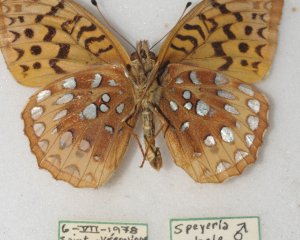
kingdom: Animalia
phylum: Arthropoda
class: Insecta
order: Lepidoptera
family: Nymphalidae
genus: Speyeria
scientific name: Speyeria cybele
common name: Great Spangled Fritillary
